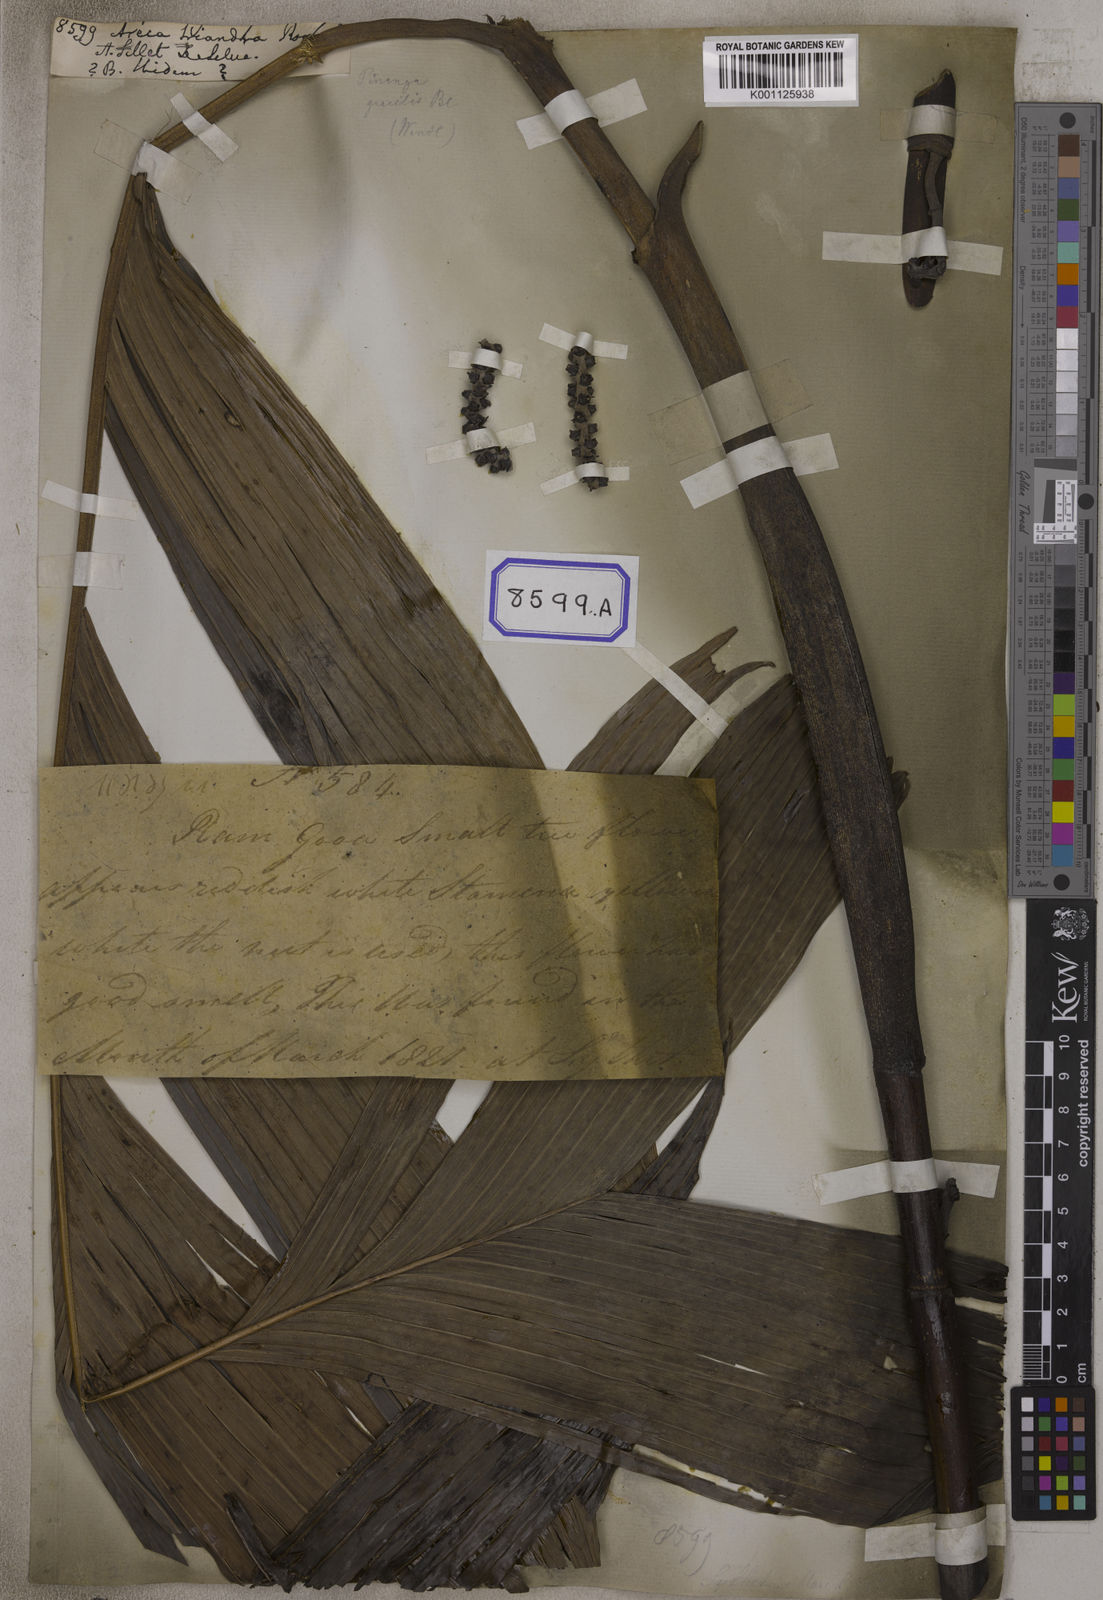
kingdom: Plantae
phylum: Tracheophyta
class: Liliopsida
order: Arecales
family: Arecaceae
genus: Areca
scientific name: Areca
